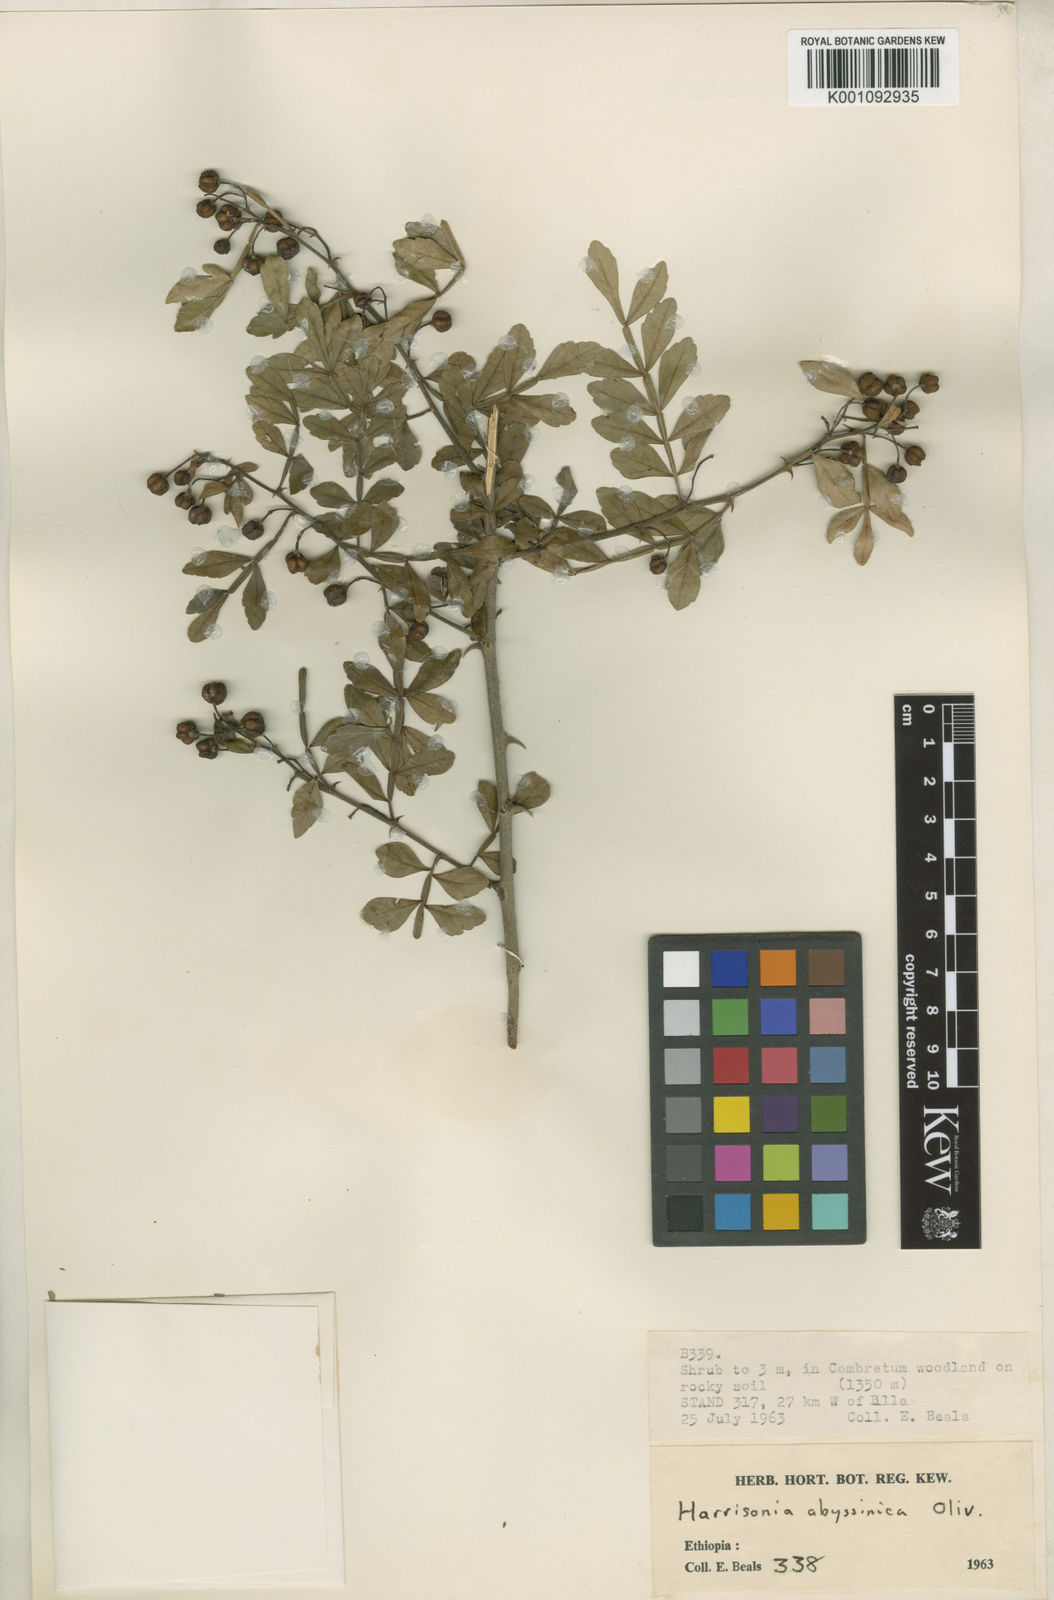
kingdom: Plantae
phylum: Tracheophyta
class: Magnoliopsida
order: Sapindales
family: Rutaceae
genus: Harrisonia
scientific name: Harrisonia abyssinica
